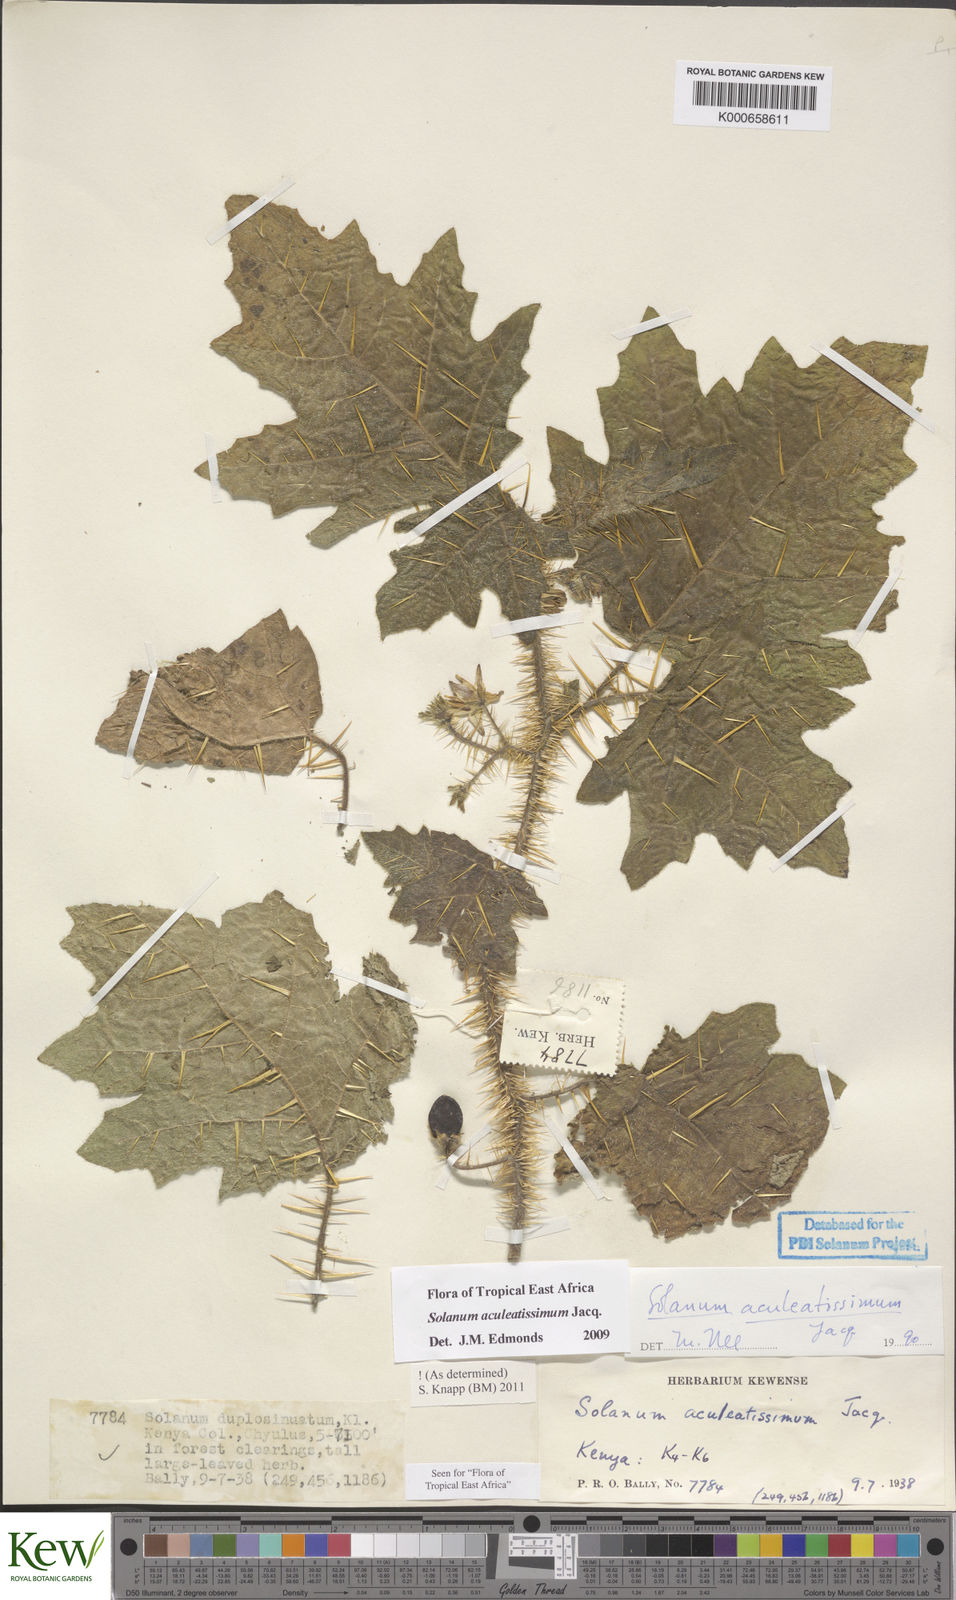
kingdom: Plantae
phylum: Tracheophyta
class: Magnoliopsida
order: Solanales
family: Solanaceae
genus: Solanum
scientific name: Solanum aculeatissimum
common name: Dutch eggplant
